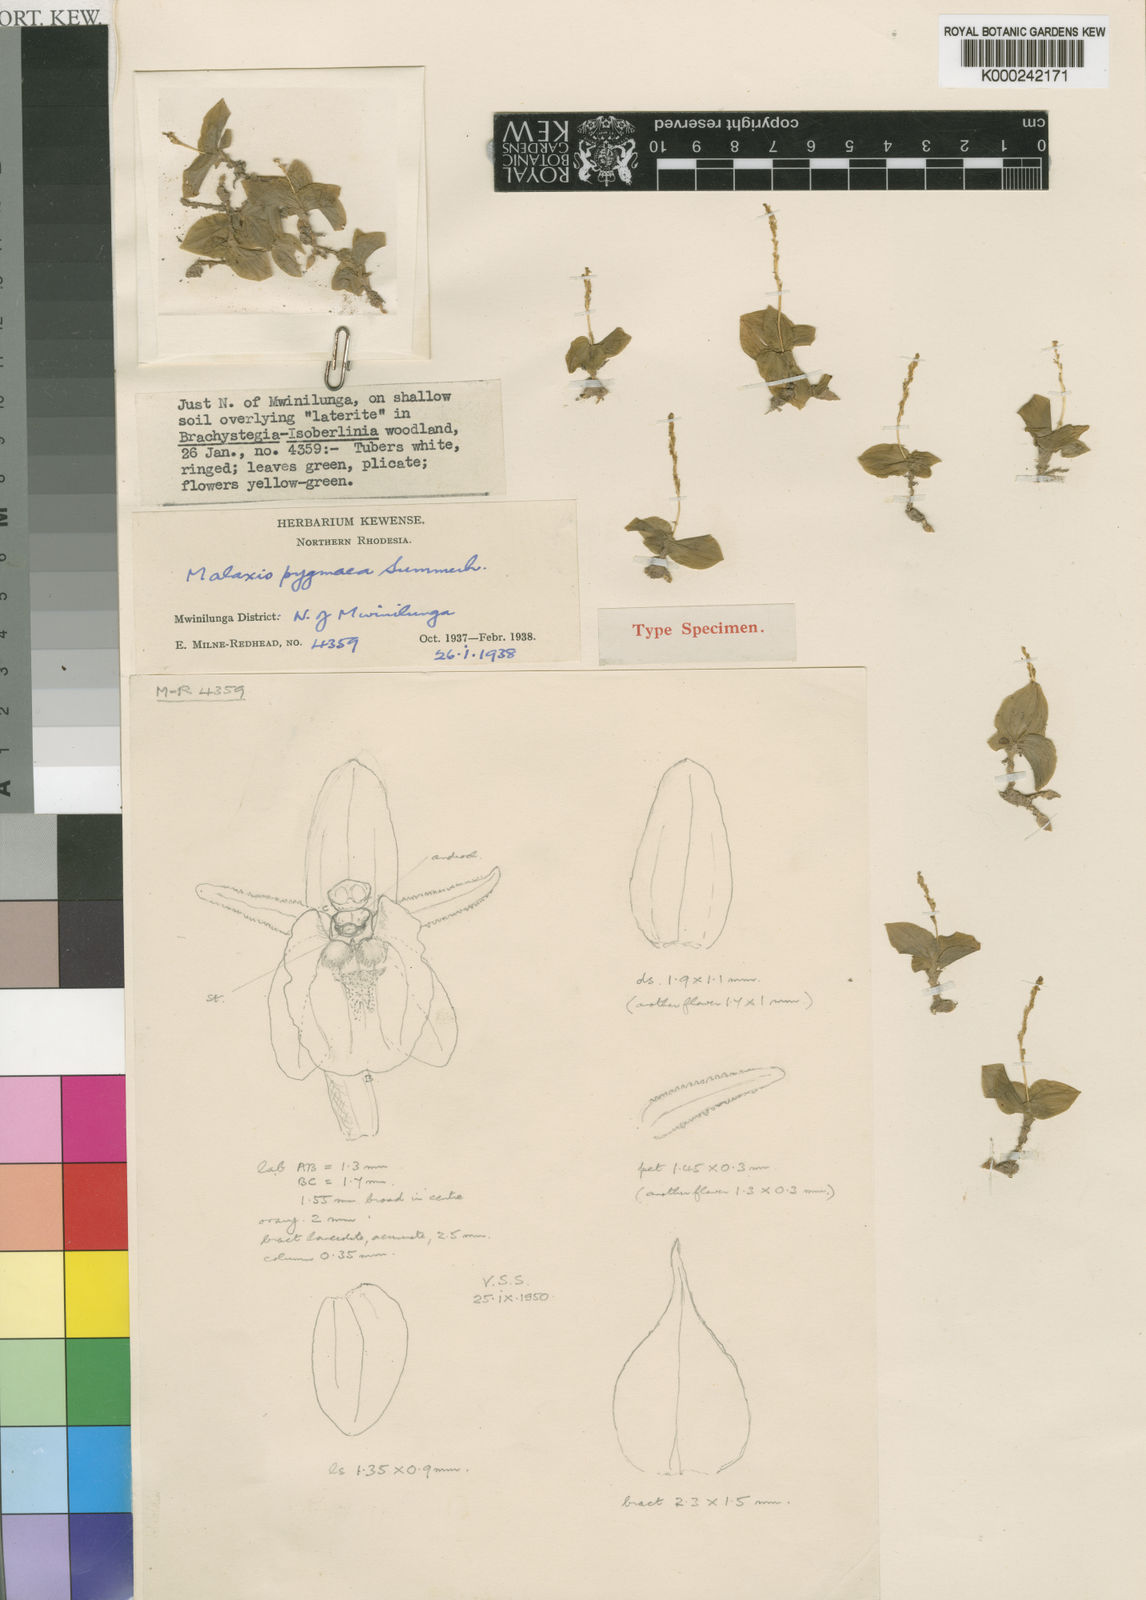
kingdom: Plantae
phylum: Tracheophyta
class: Liliopsida
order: Asparagales
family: Orchidaceae
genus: Malaxis
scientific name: Malaxis katangensis
